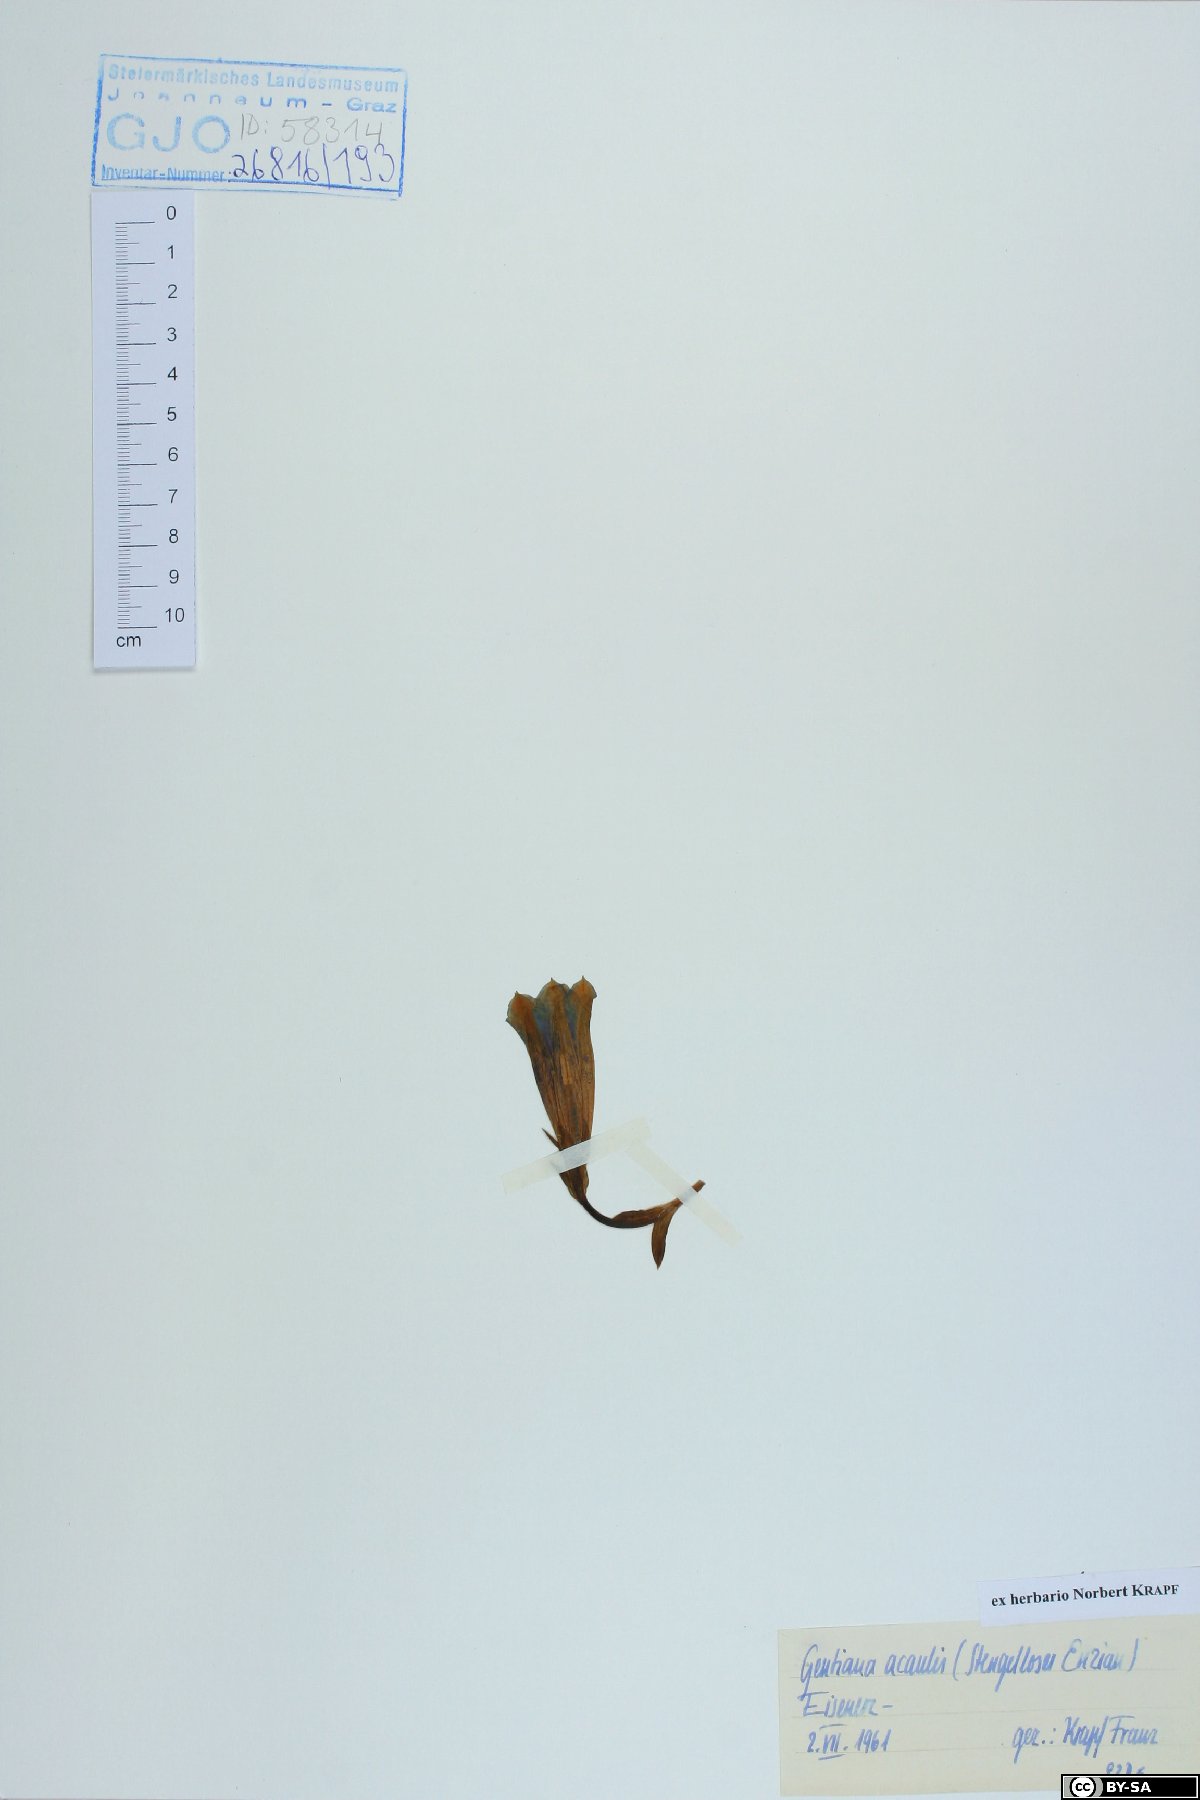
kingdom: Plantae
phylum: Tracheophyta
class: Magnoliopsida
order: Gentianales
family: Gentianaceae
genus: Gentiana
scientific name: Gentiana clusii
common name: Trumpet gentian
